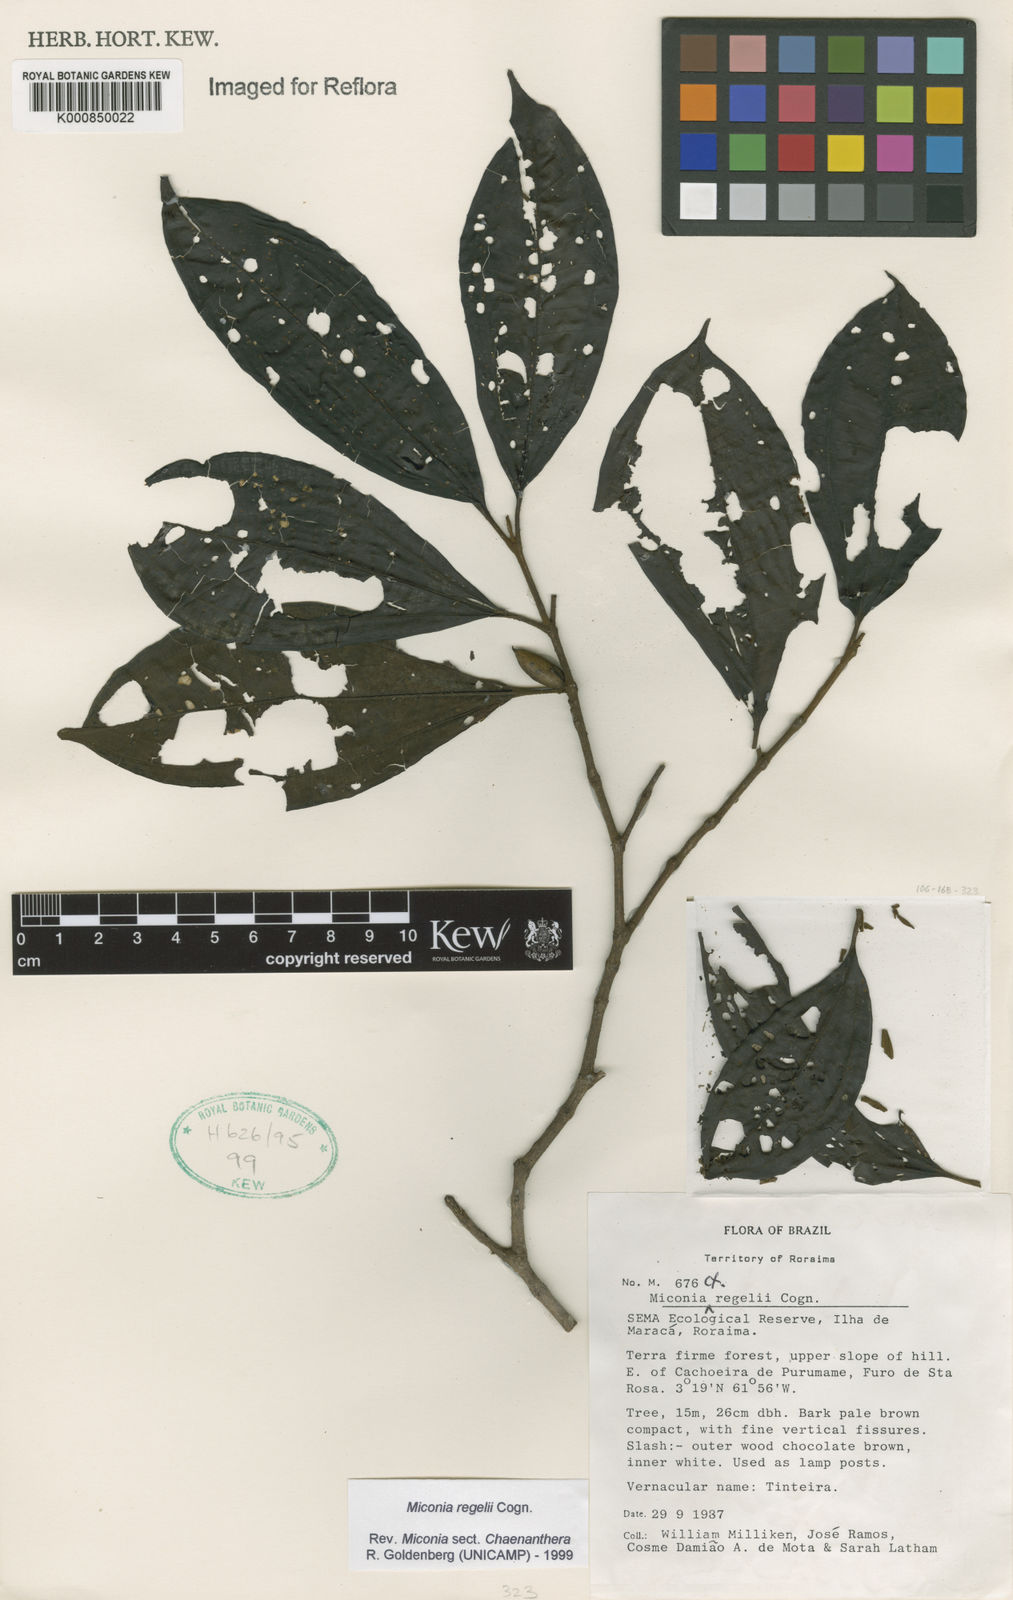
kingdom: Plantae
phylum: Tracheophyta
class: Magnoliopsida
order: Myrtales
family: Melastomataceae
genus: Miconia
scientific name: Miconia regelii
